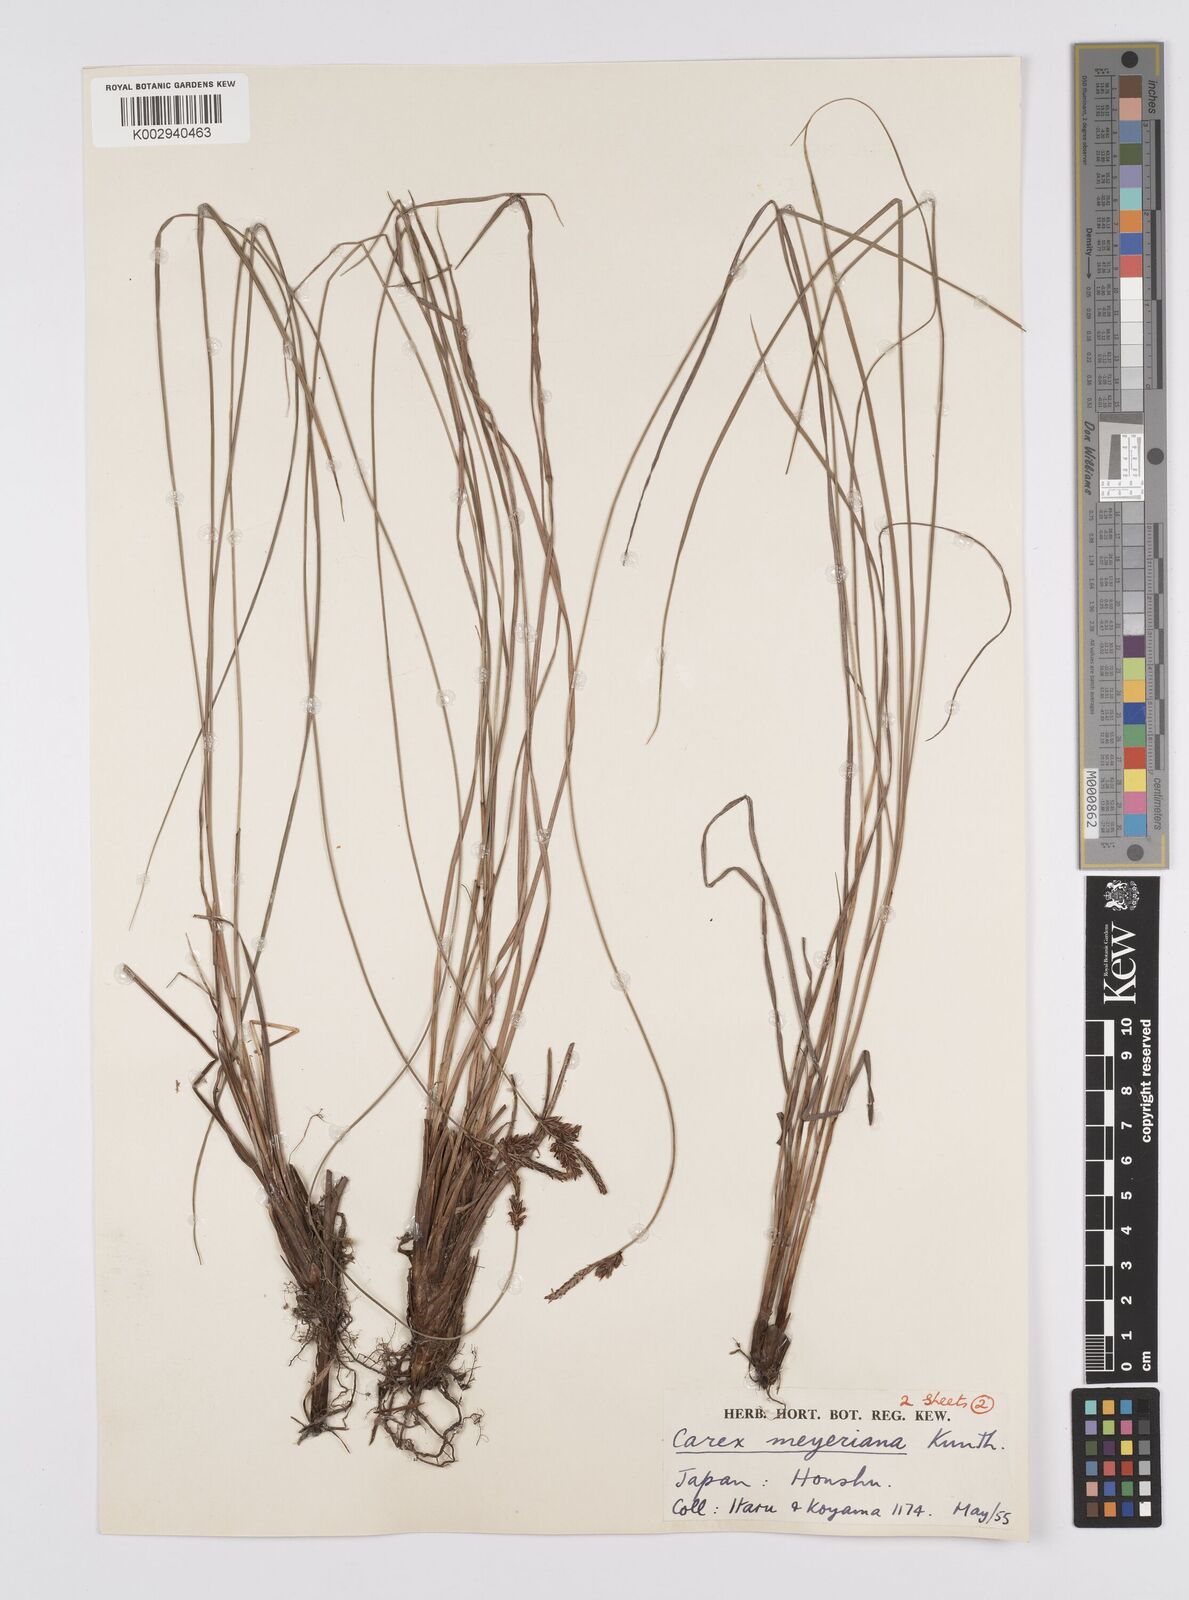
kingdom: Plantae
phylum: Tracheophyta
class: Liliopsida
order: Poales
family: Cyperaceae
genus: Carex
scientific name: Carex meyeriana
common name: Wula sedge
